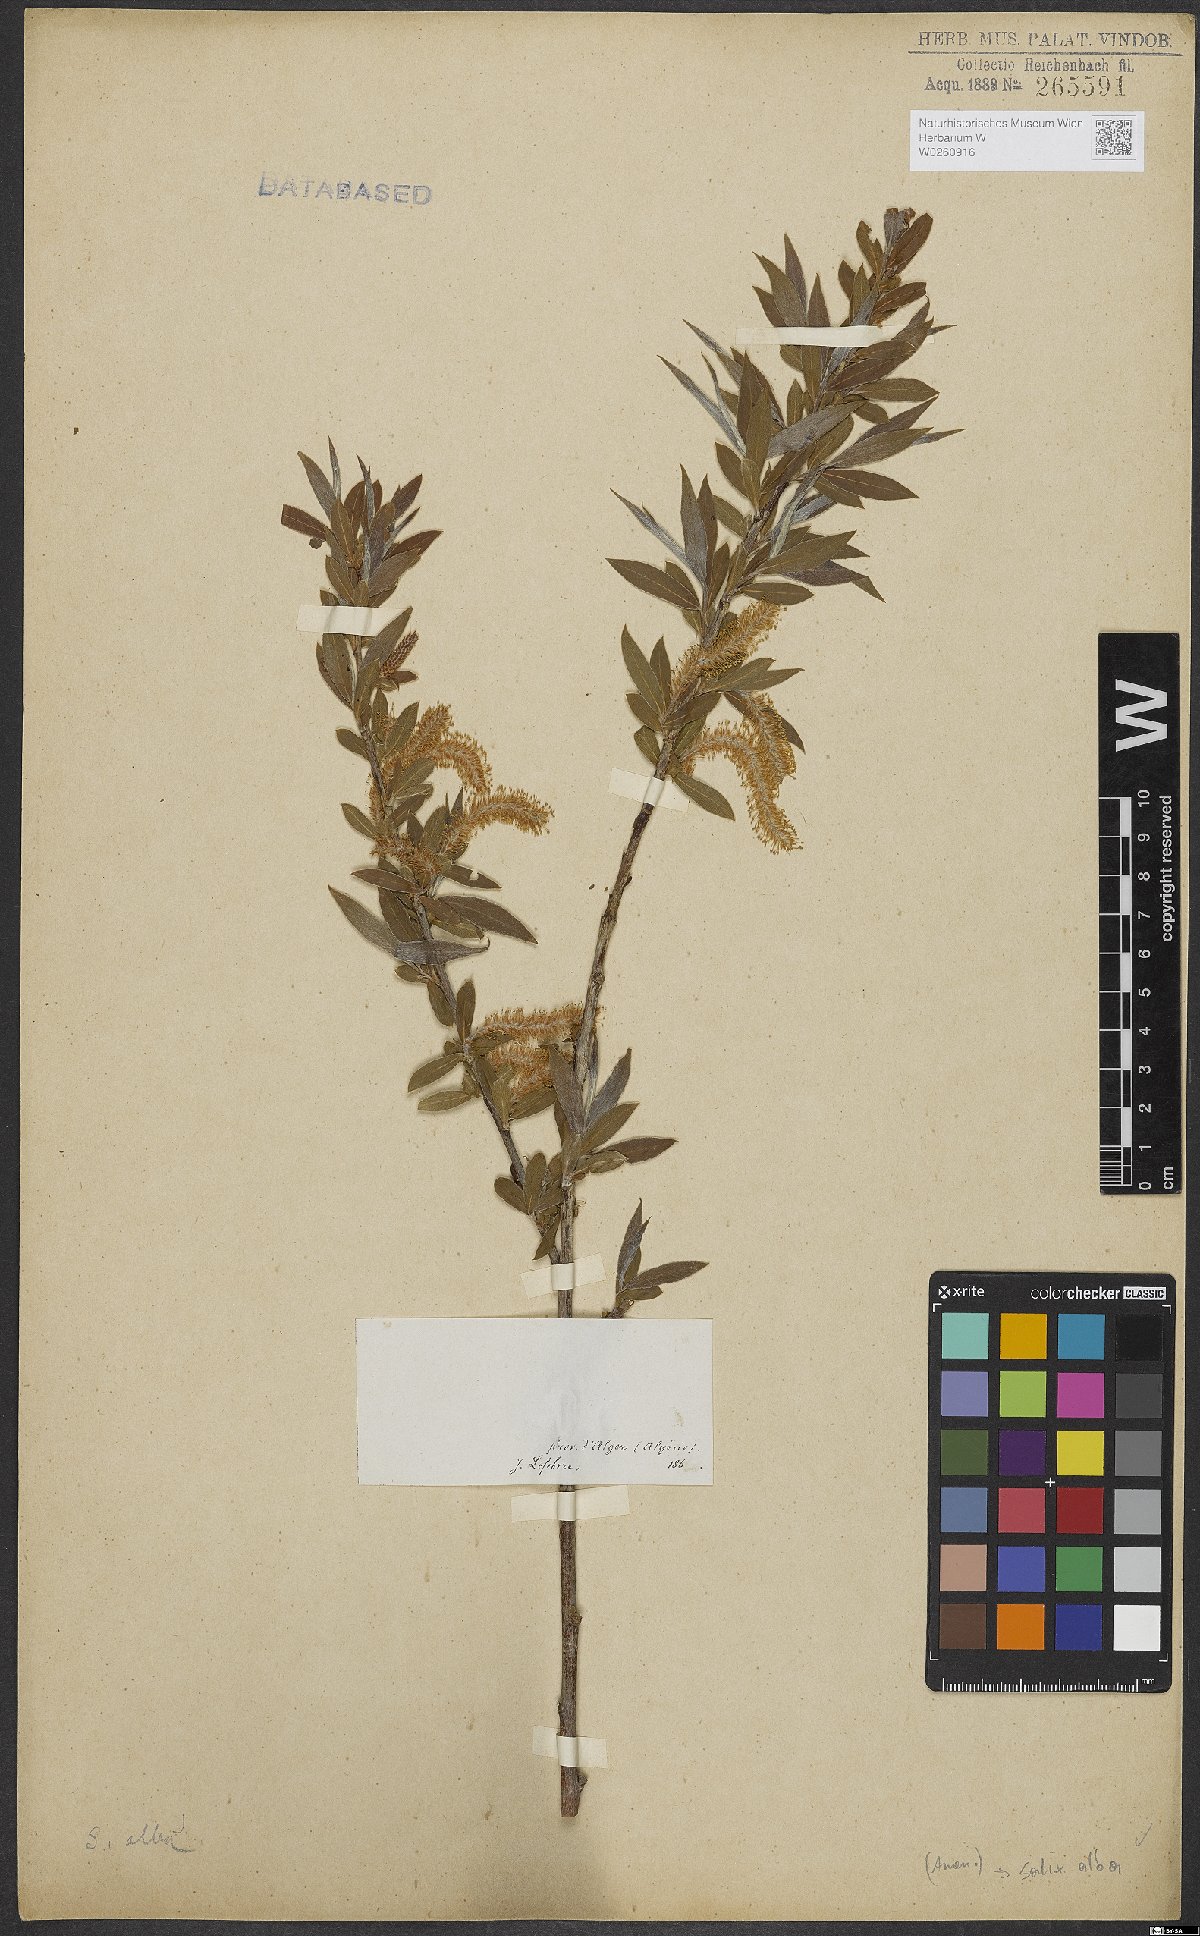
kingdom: Plantae
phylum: Tracheophyta
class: Magnoliopsida
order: Malpighiales
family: Salicaceae
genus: Salix
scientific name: Salix alba
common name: White willow
